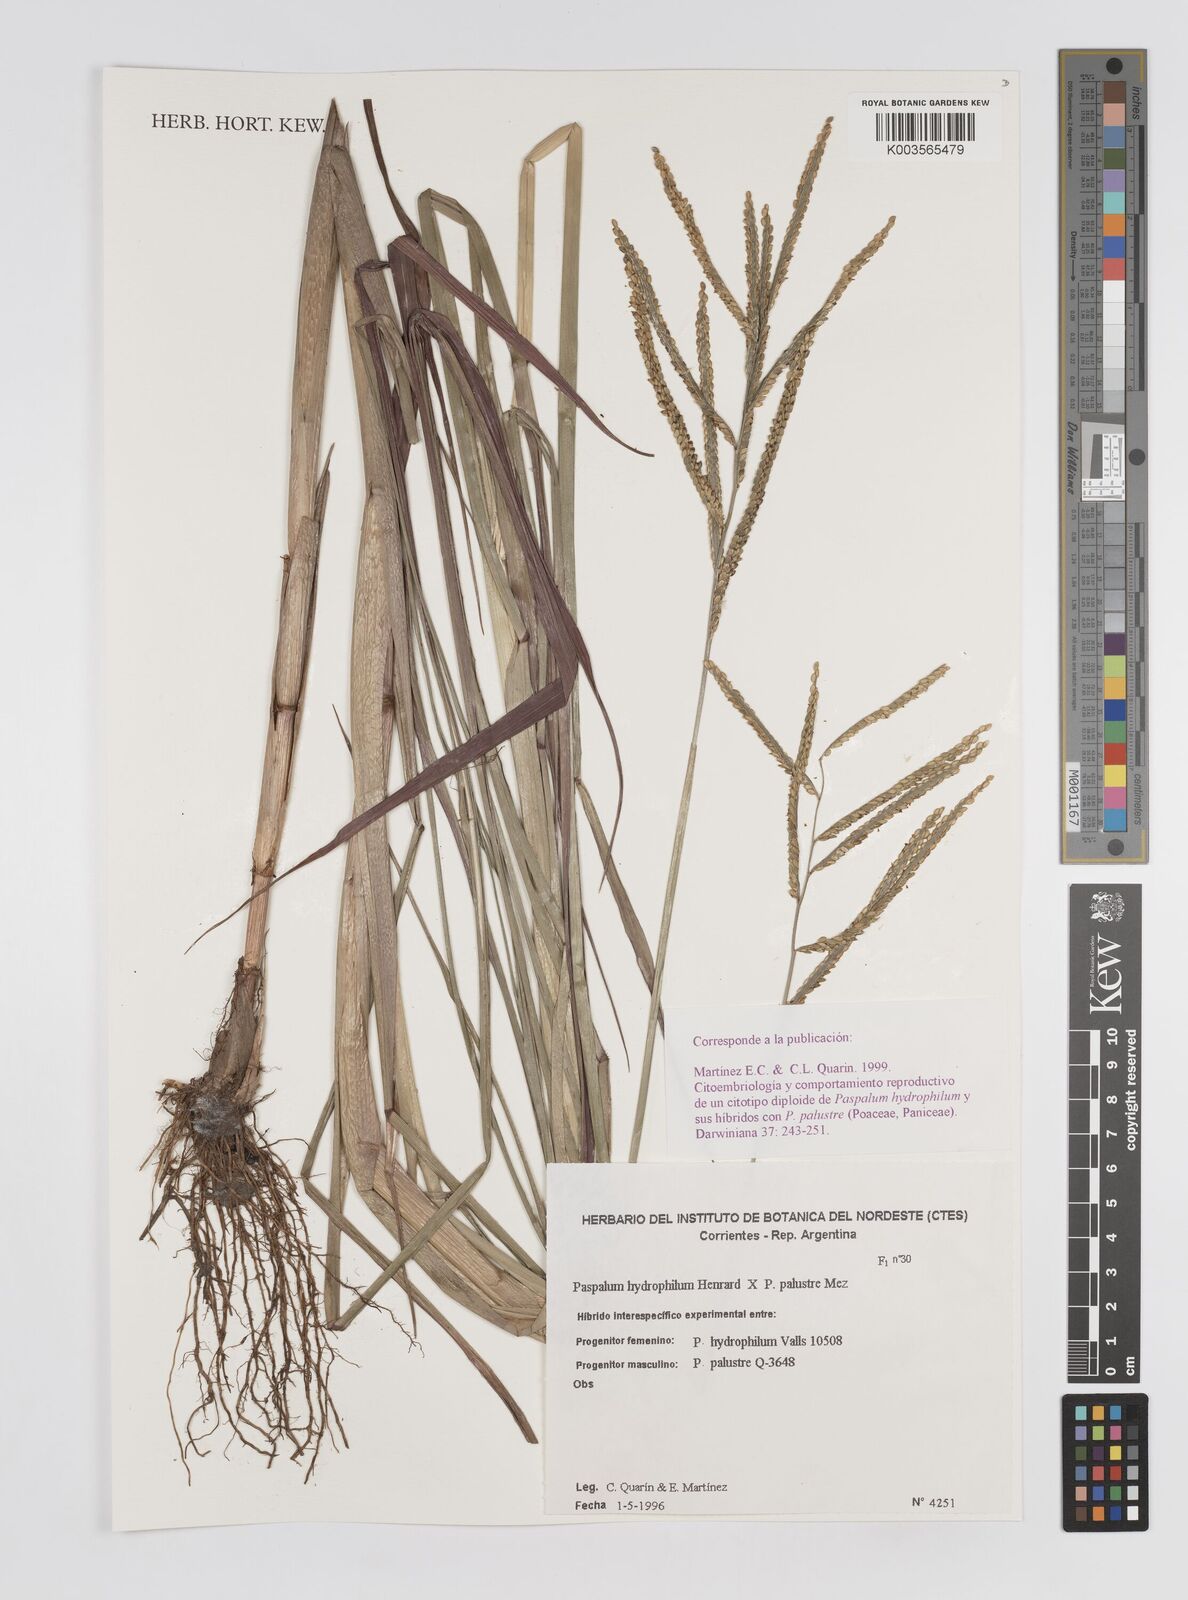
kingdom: Plantae
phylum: Tracheophyta
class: Liliopsida
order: Poales
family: Poaceae
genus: Paspalum
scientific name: Paspalum wrightii
